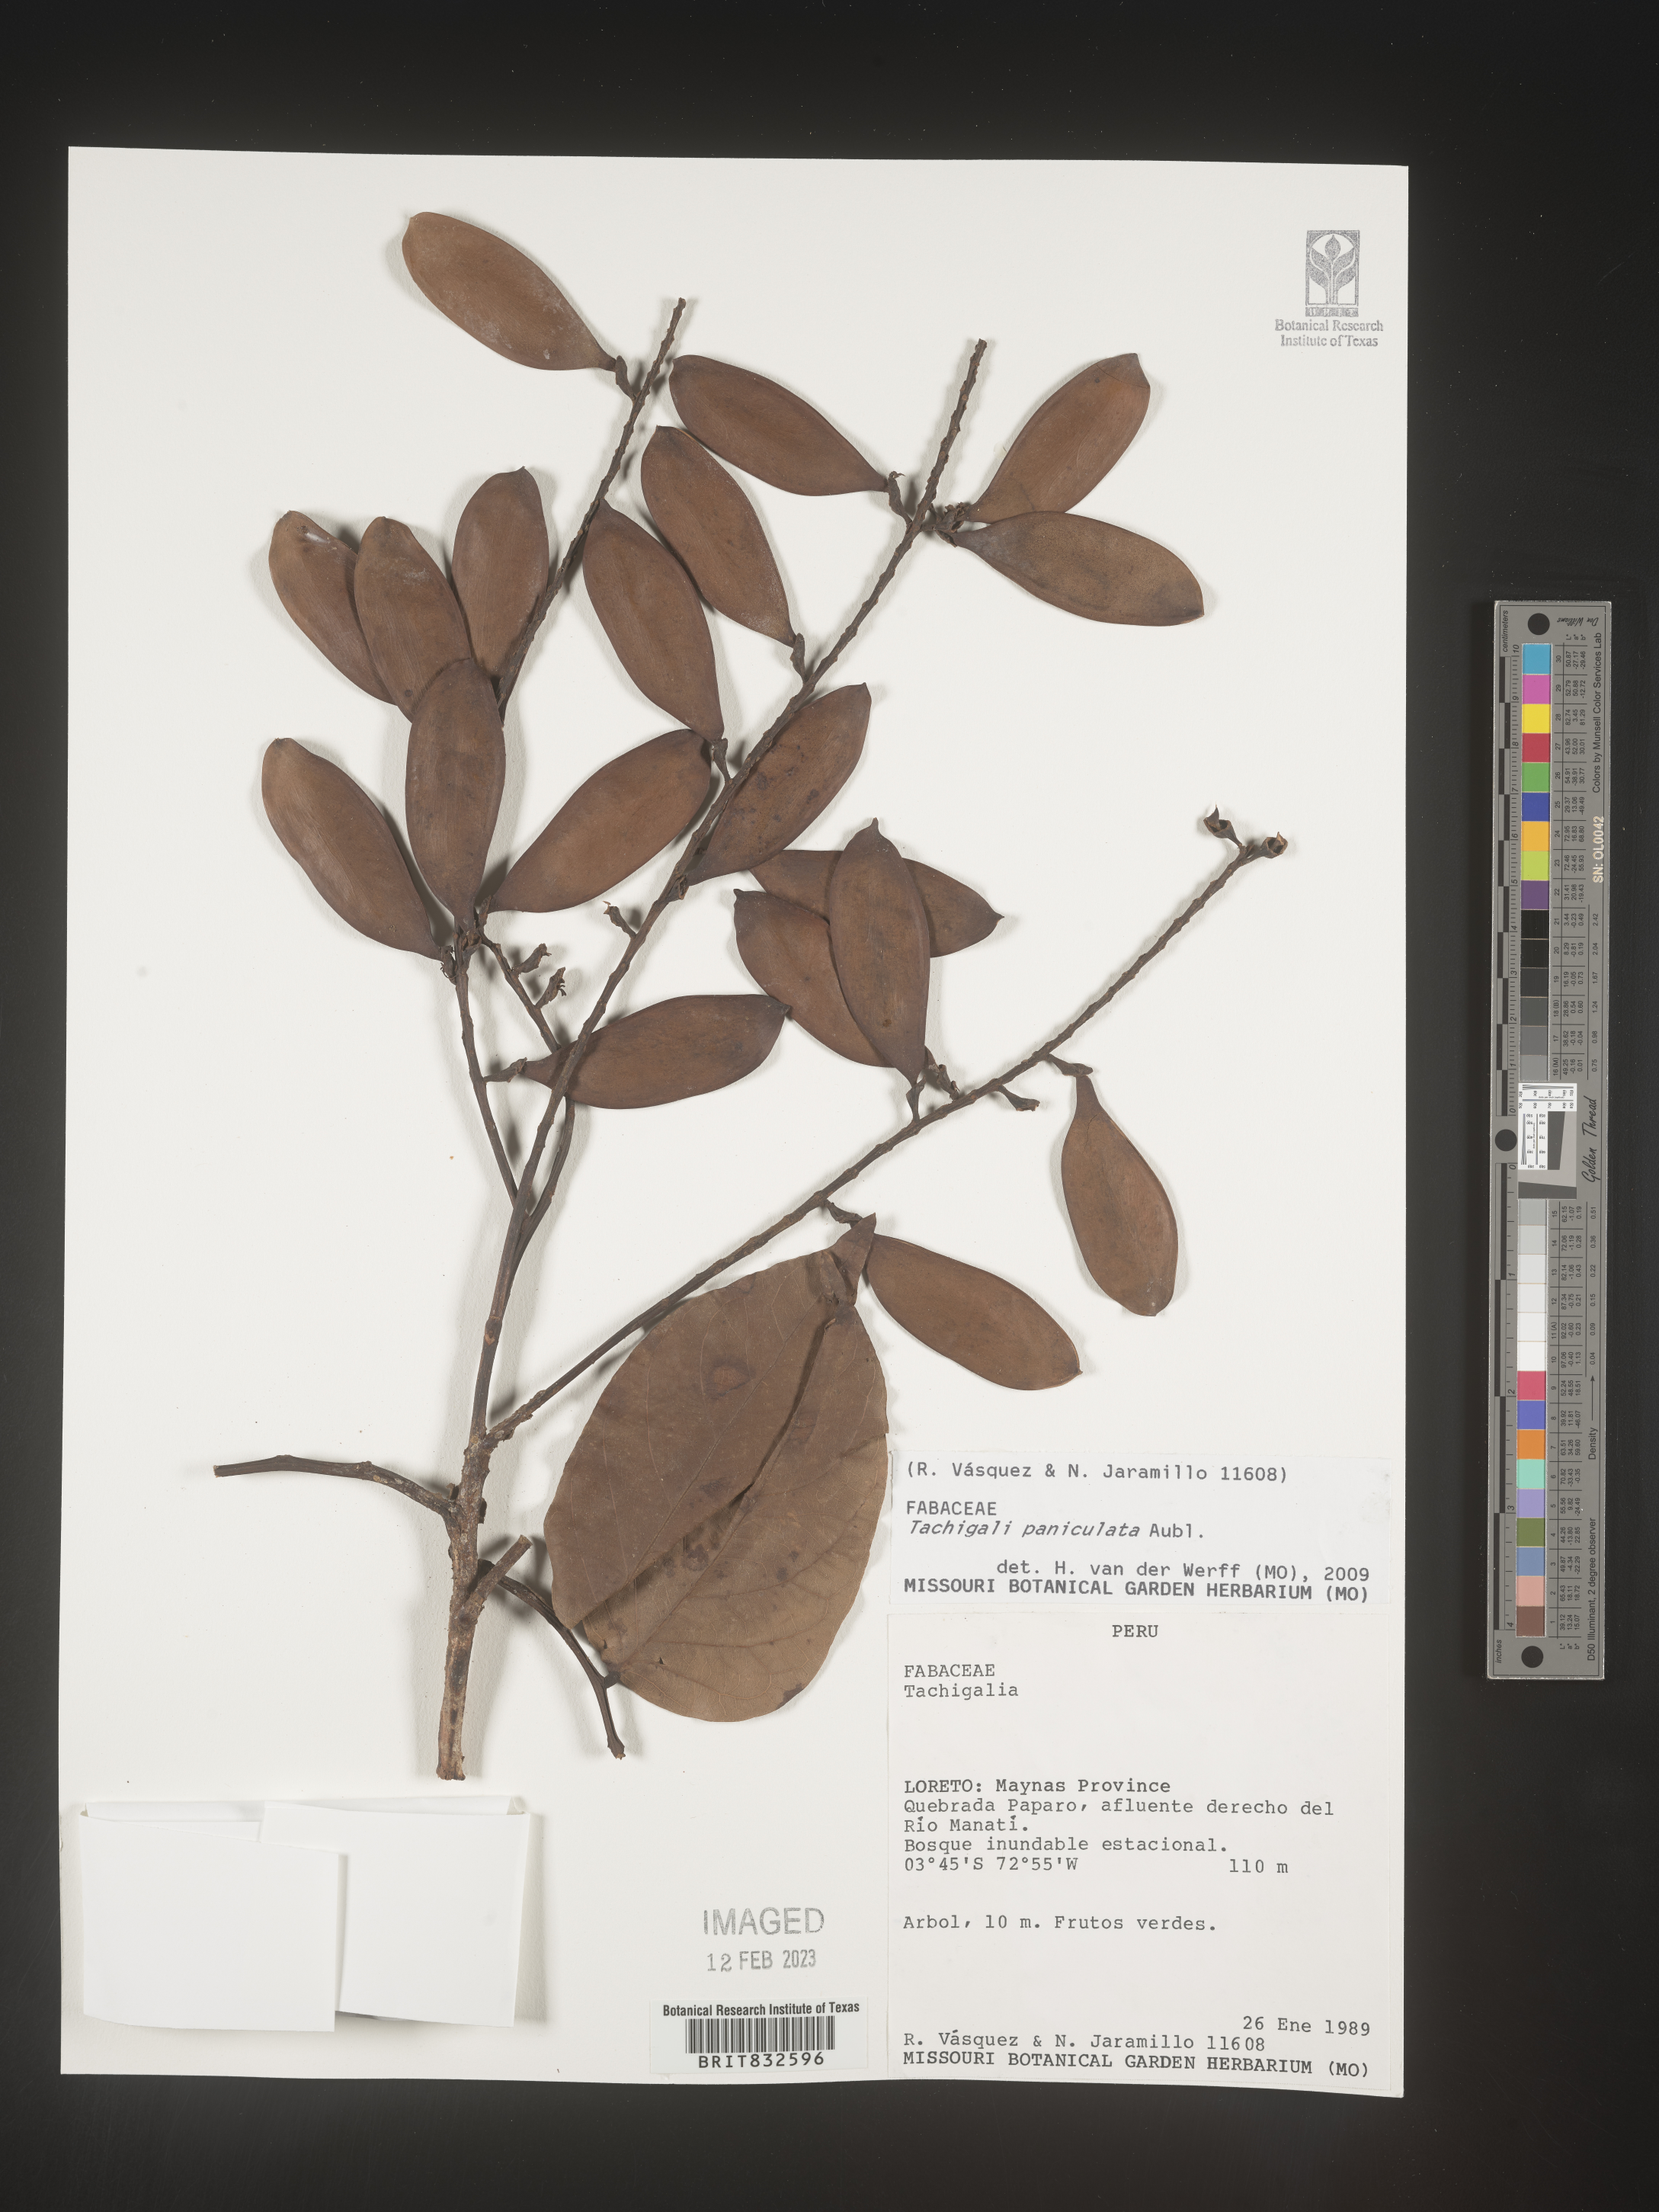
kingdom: Plantae
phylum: Tracheophyta
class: Magnoliopsida
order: Fabales
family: Fabaceae
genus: Tachigali
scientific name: Tachigali
